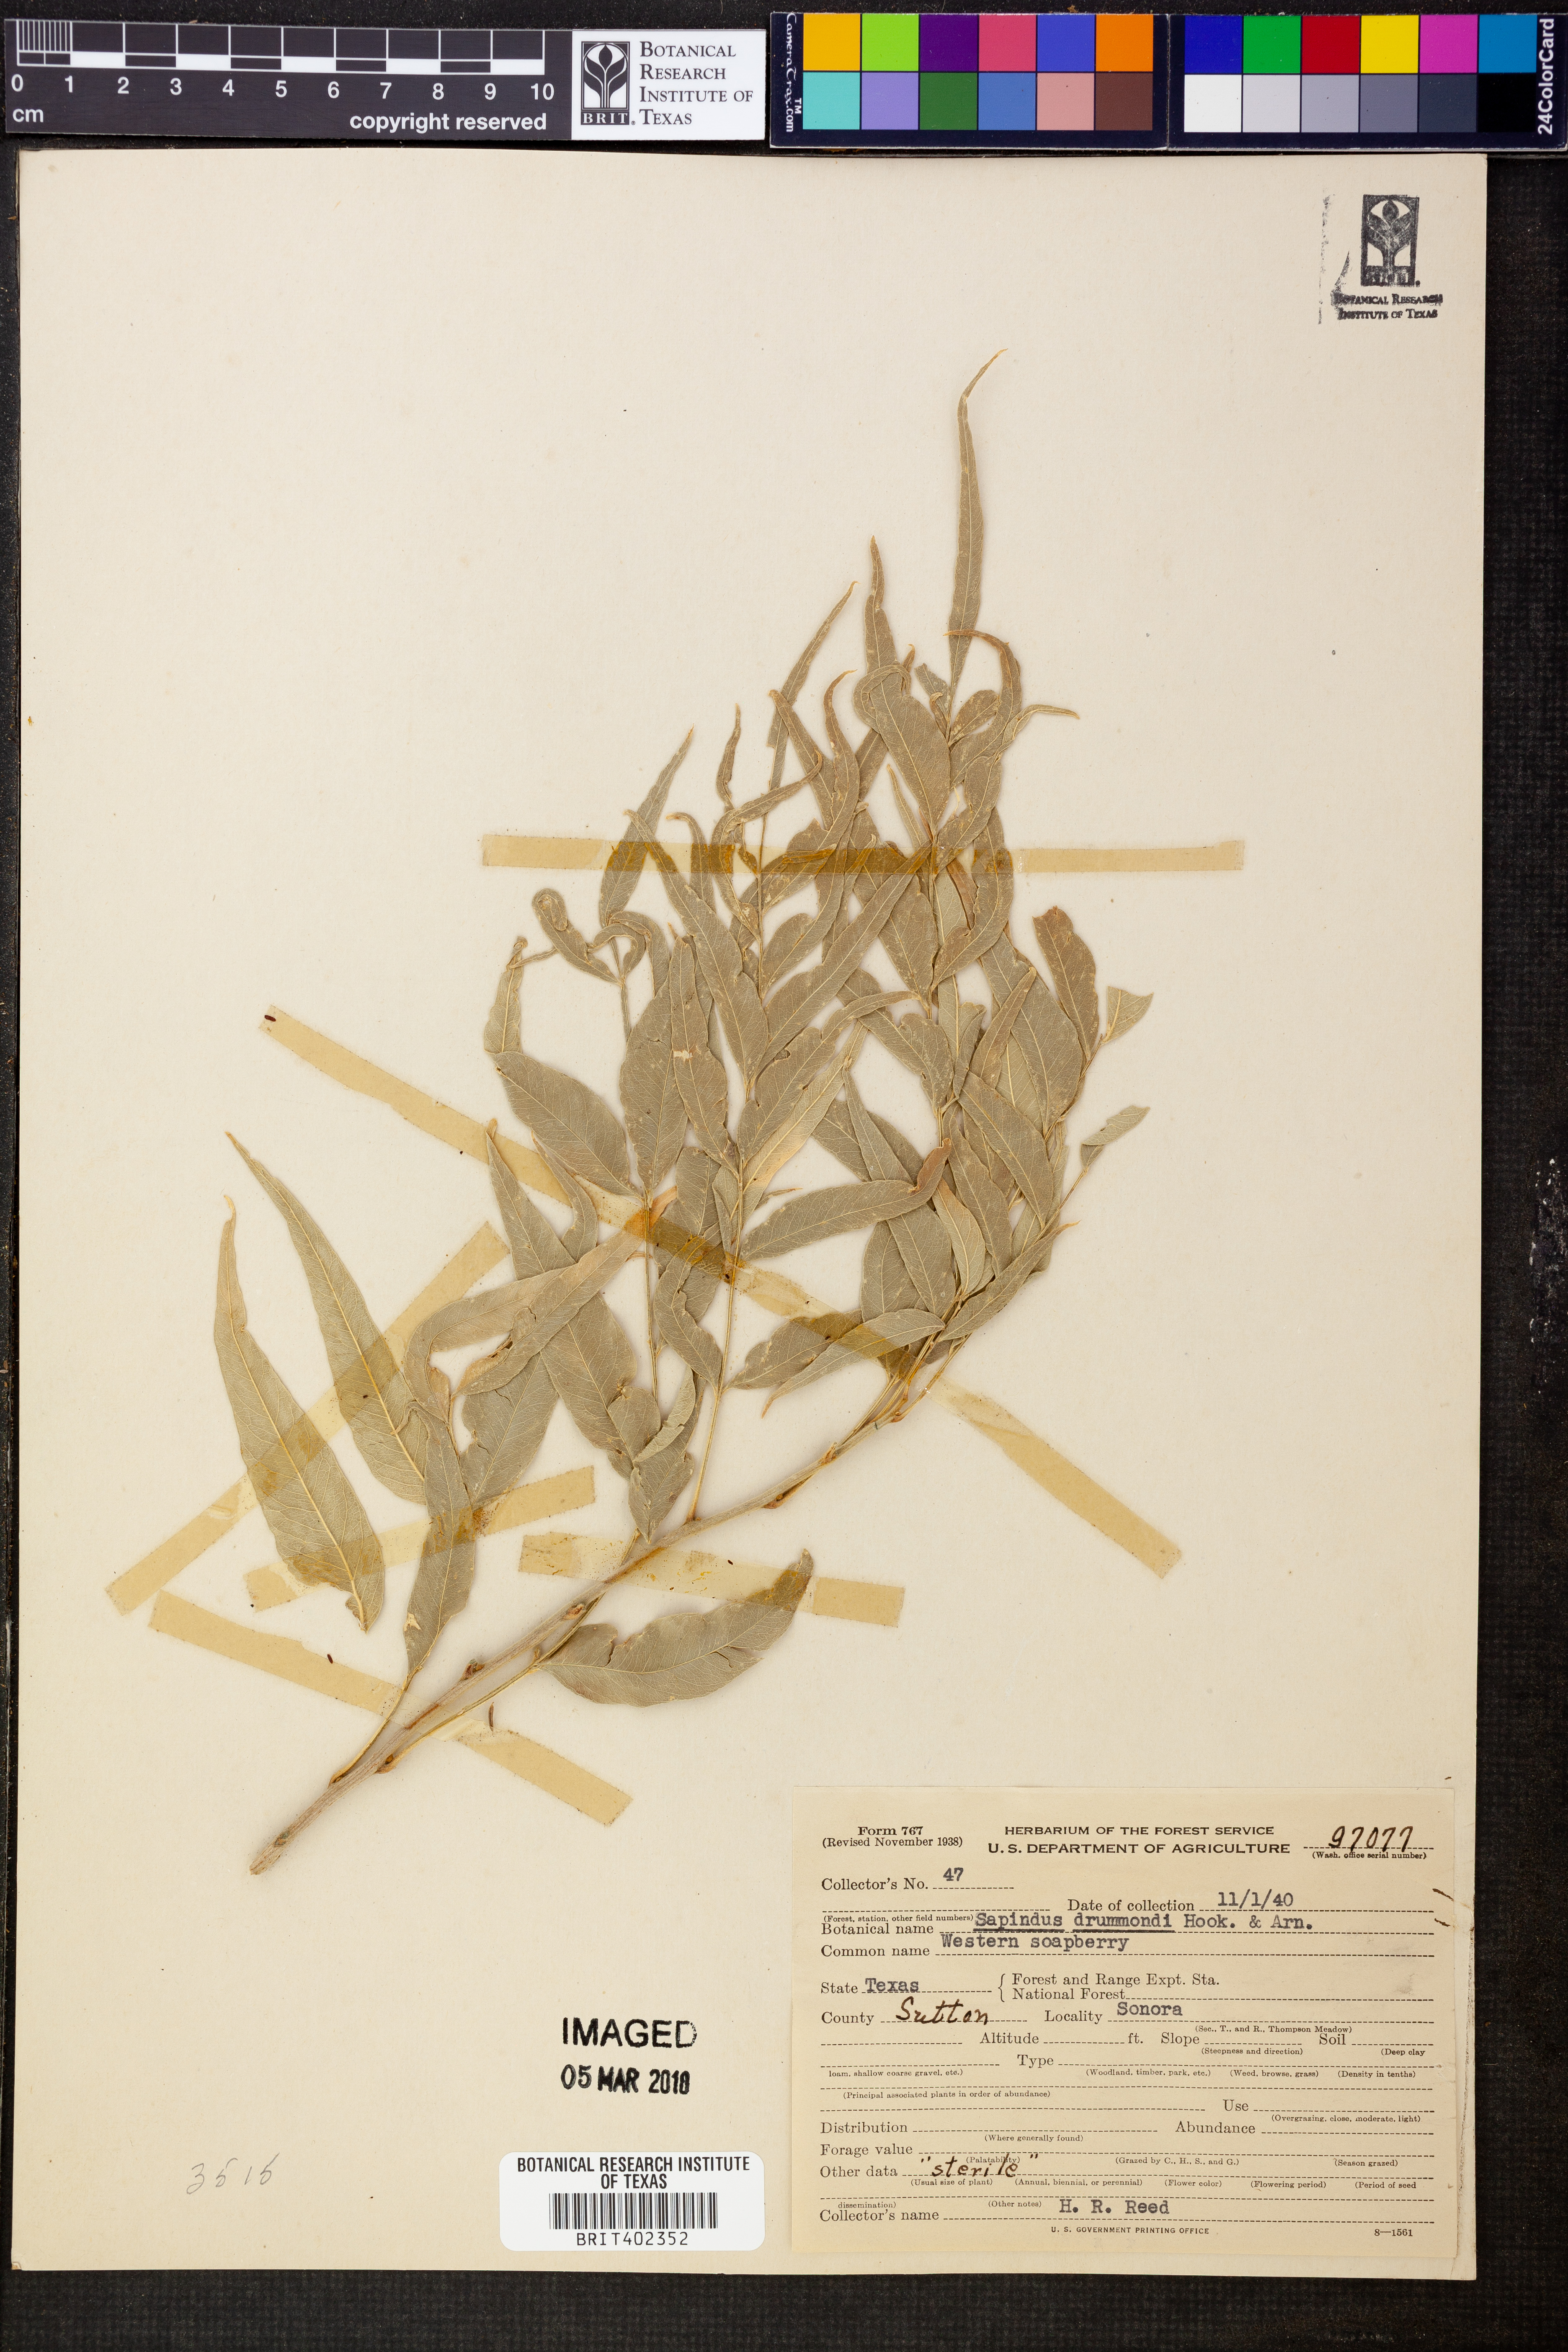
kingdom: Plantae
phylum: Tracheophyta
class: Magnoliopsida
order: Sapindales
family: Sapindaceae
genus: Sapindus
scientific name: Sapindus drummondii
